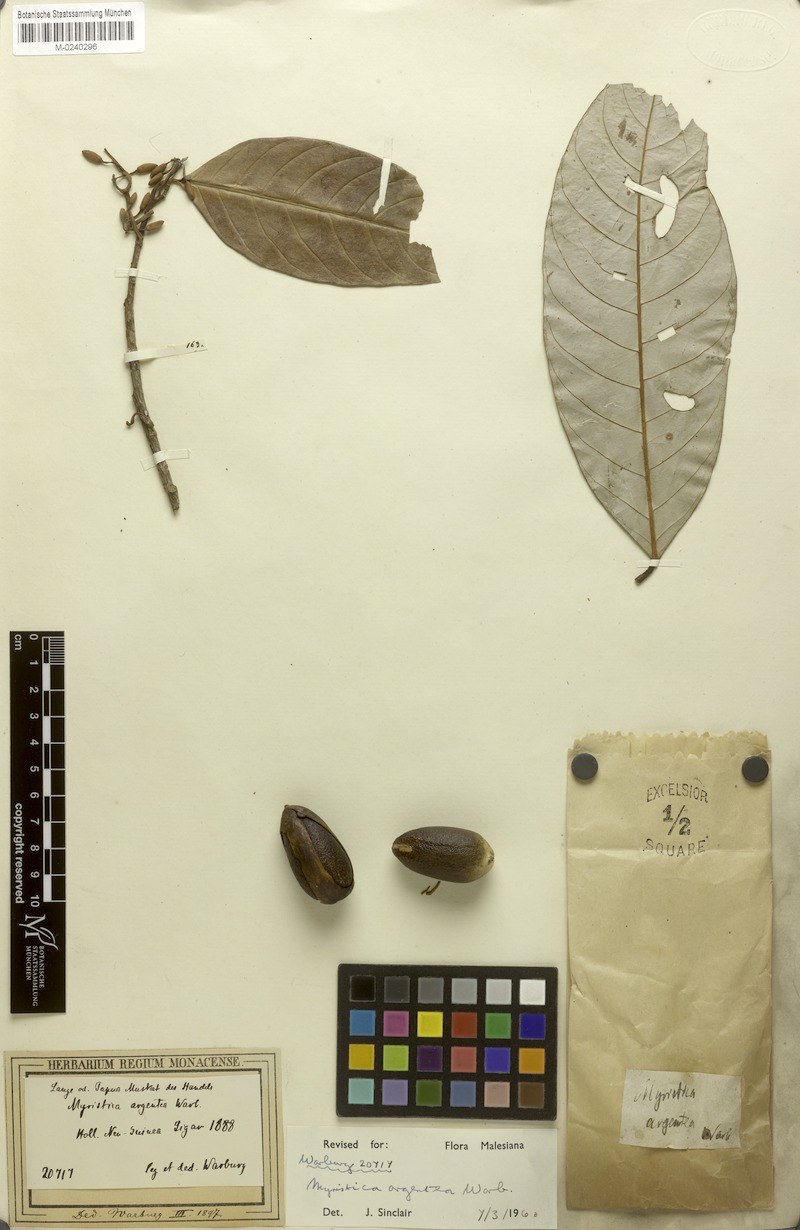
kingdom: Plantae
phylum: Tracheophyta
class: Magnoliopsida
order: Magnoliales
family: Myristicaceae
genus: Myristica
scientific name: Myristica argentea
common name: Macassar mace
